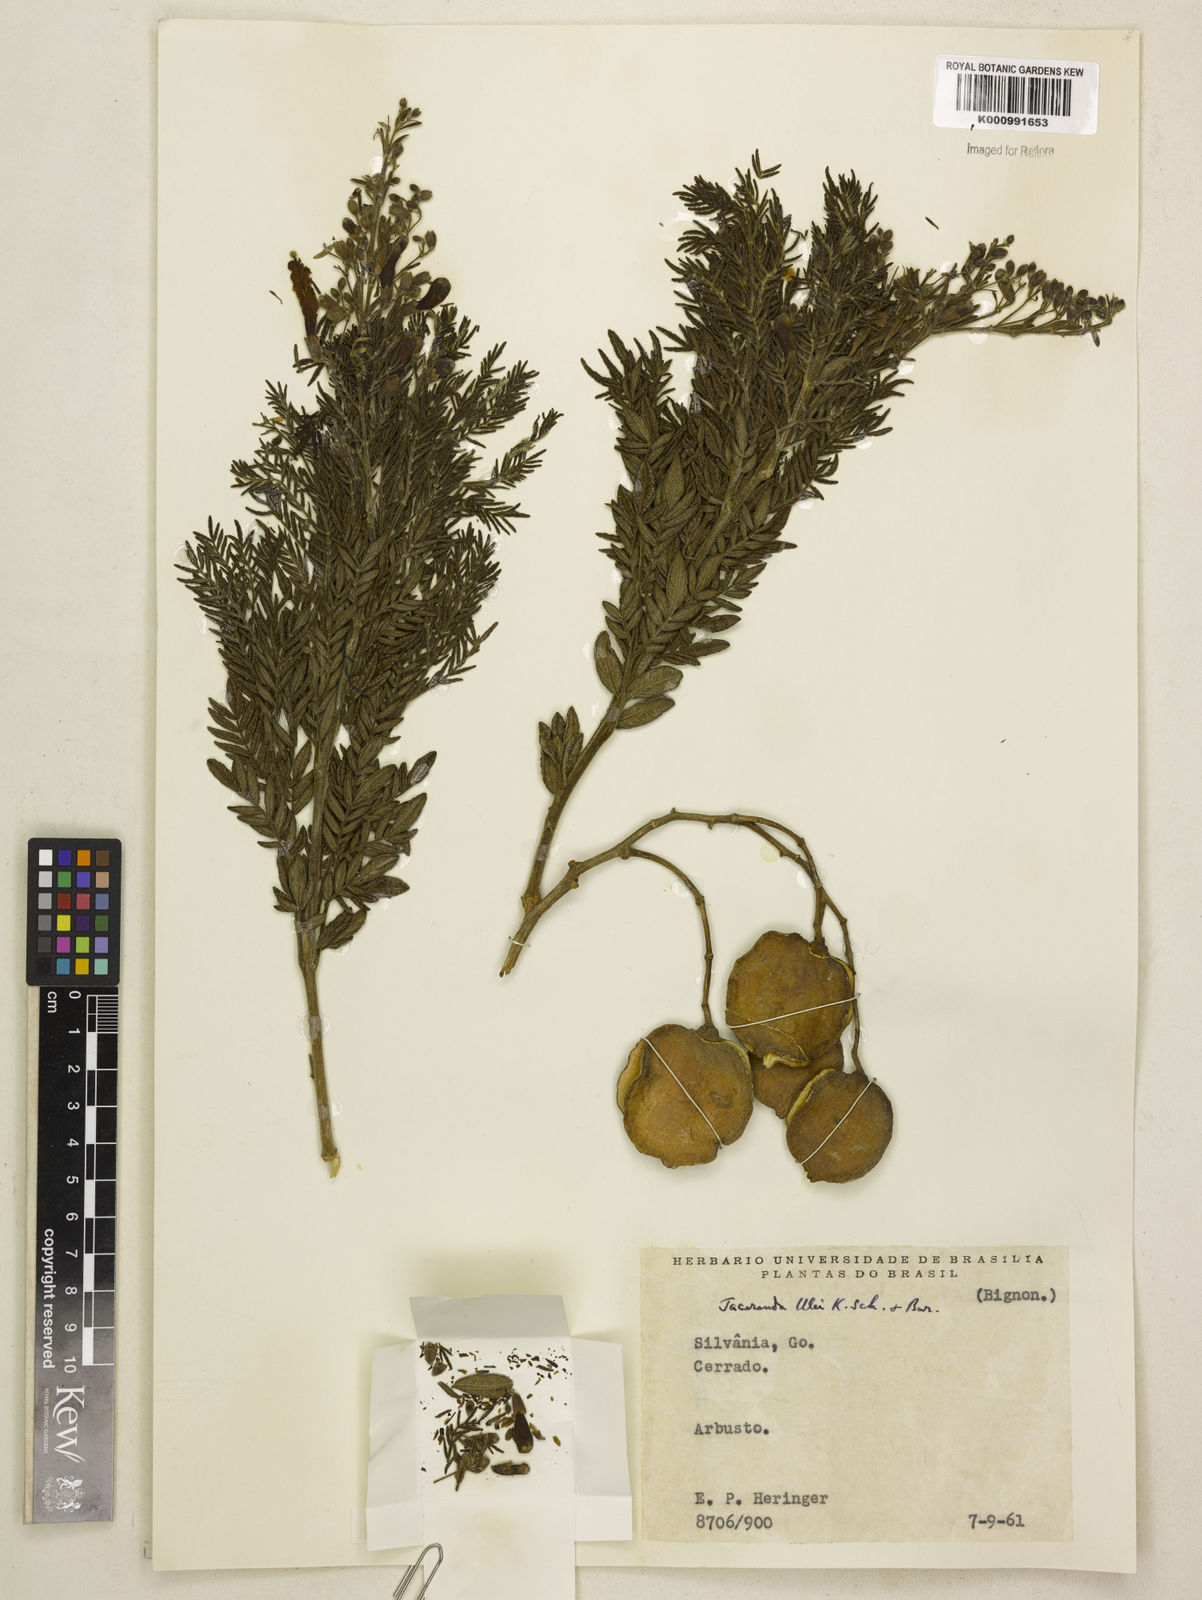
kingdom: Plantae
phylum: Tracheophyta
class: Magnoliopsida
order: Lamiales
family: Bignoniaceae
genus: Jacaranda
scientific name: Jacaranda ulei
